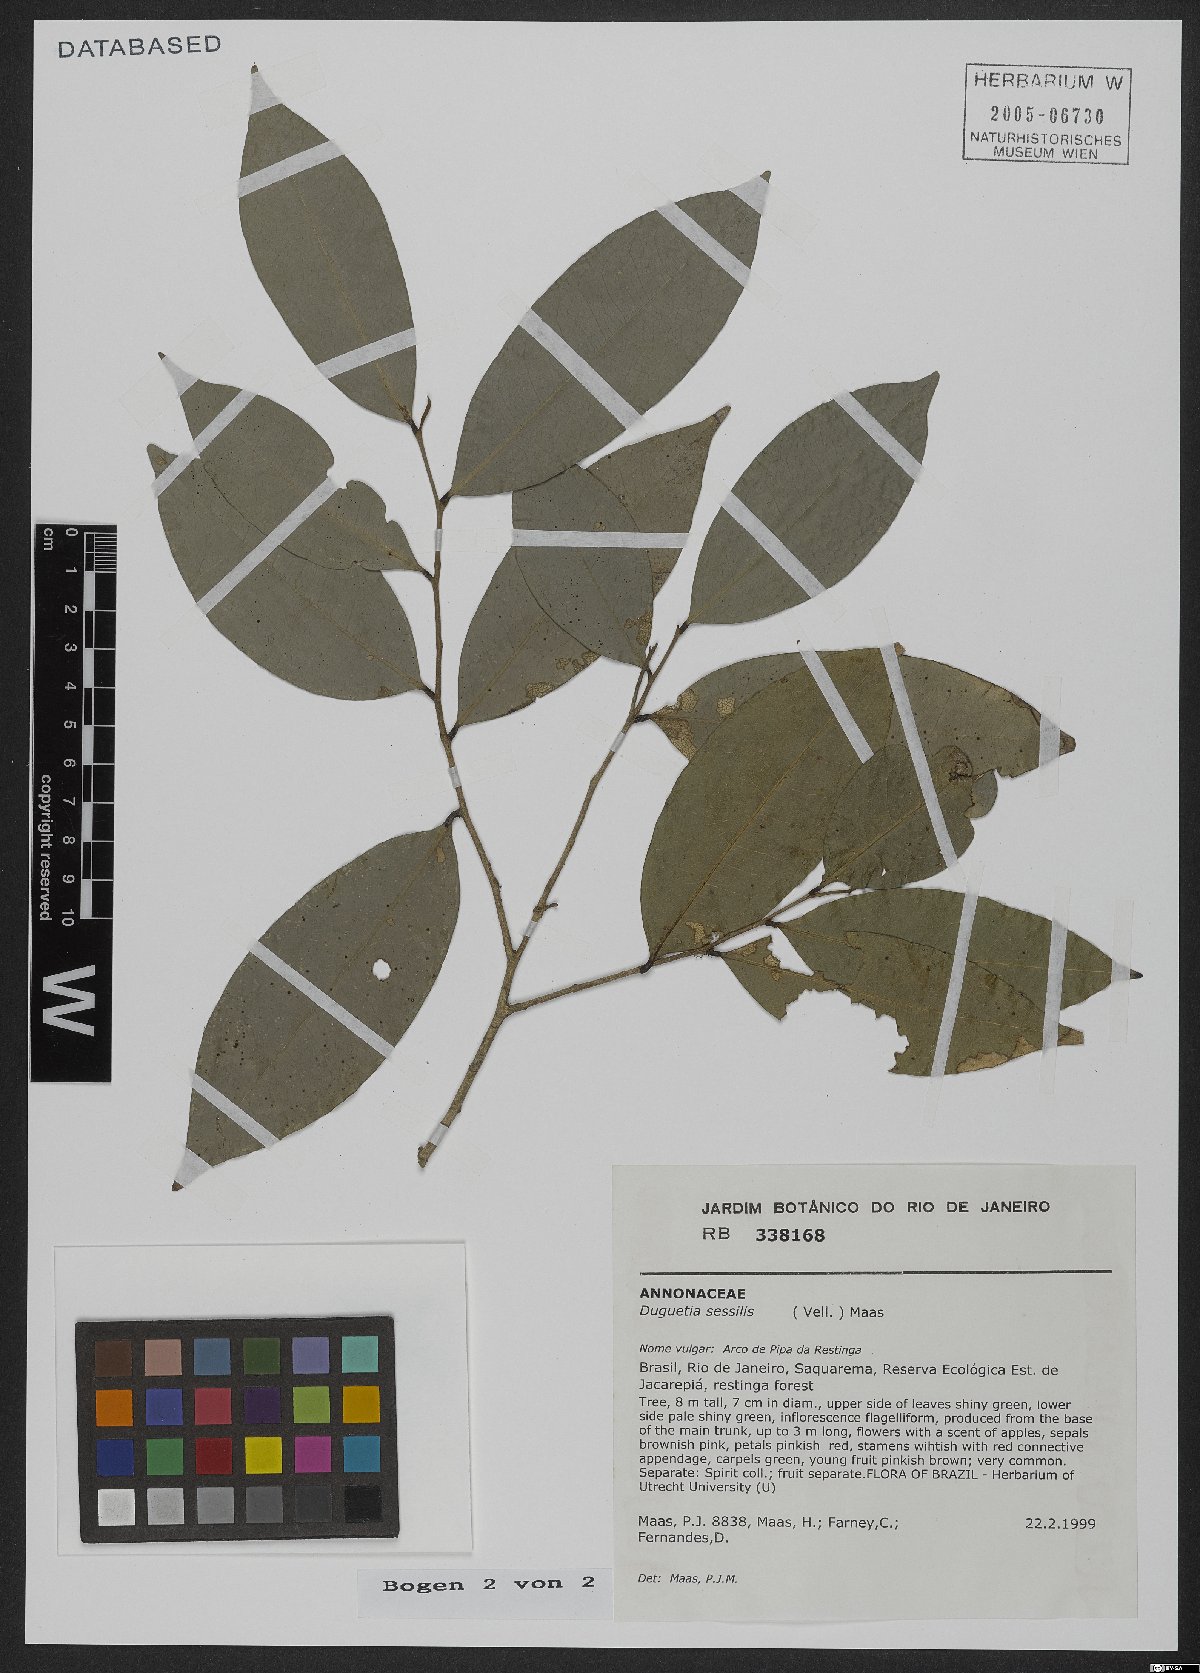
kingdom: Plantae
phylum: Tracheophyta
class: Magnoliopsida
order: Magnoliales
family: Annonaceae
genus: Duguetia
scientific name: Duguetia sessilis
